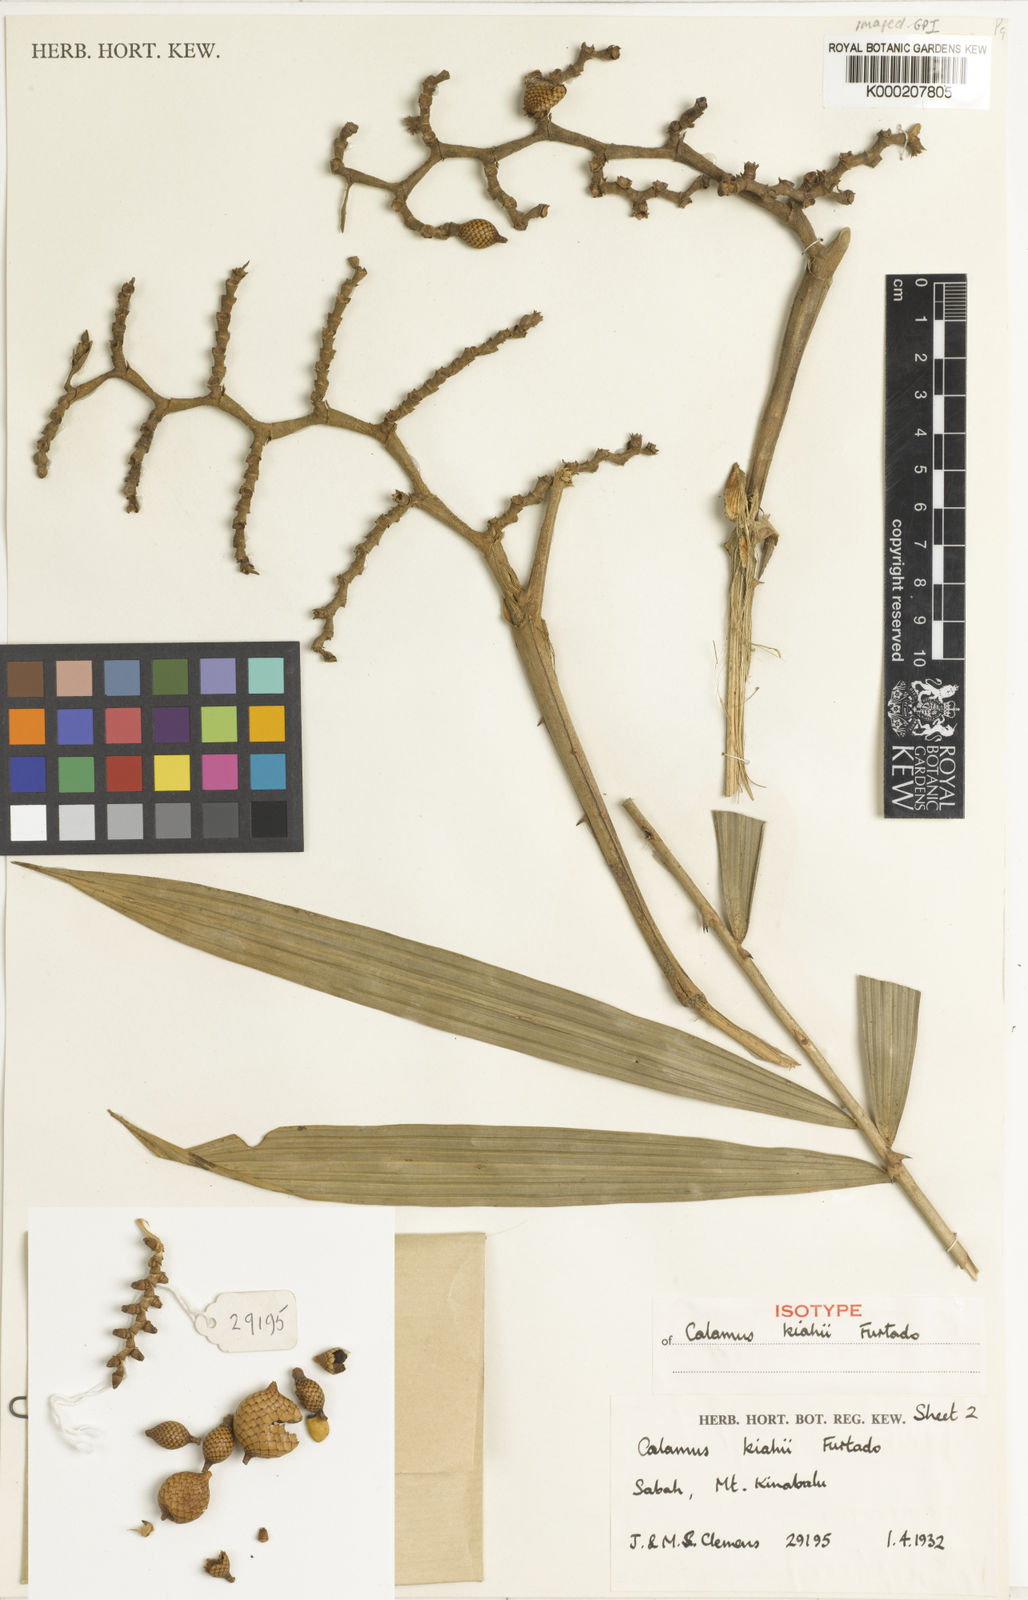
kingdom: Plantae
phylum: Tracheophyta
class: Liliopsida
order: Arecales
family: Arecaceae
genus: Calamus
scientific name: Calamus plicatus
